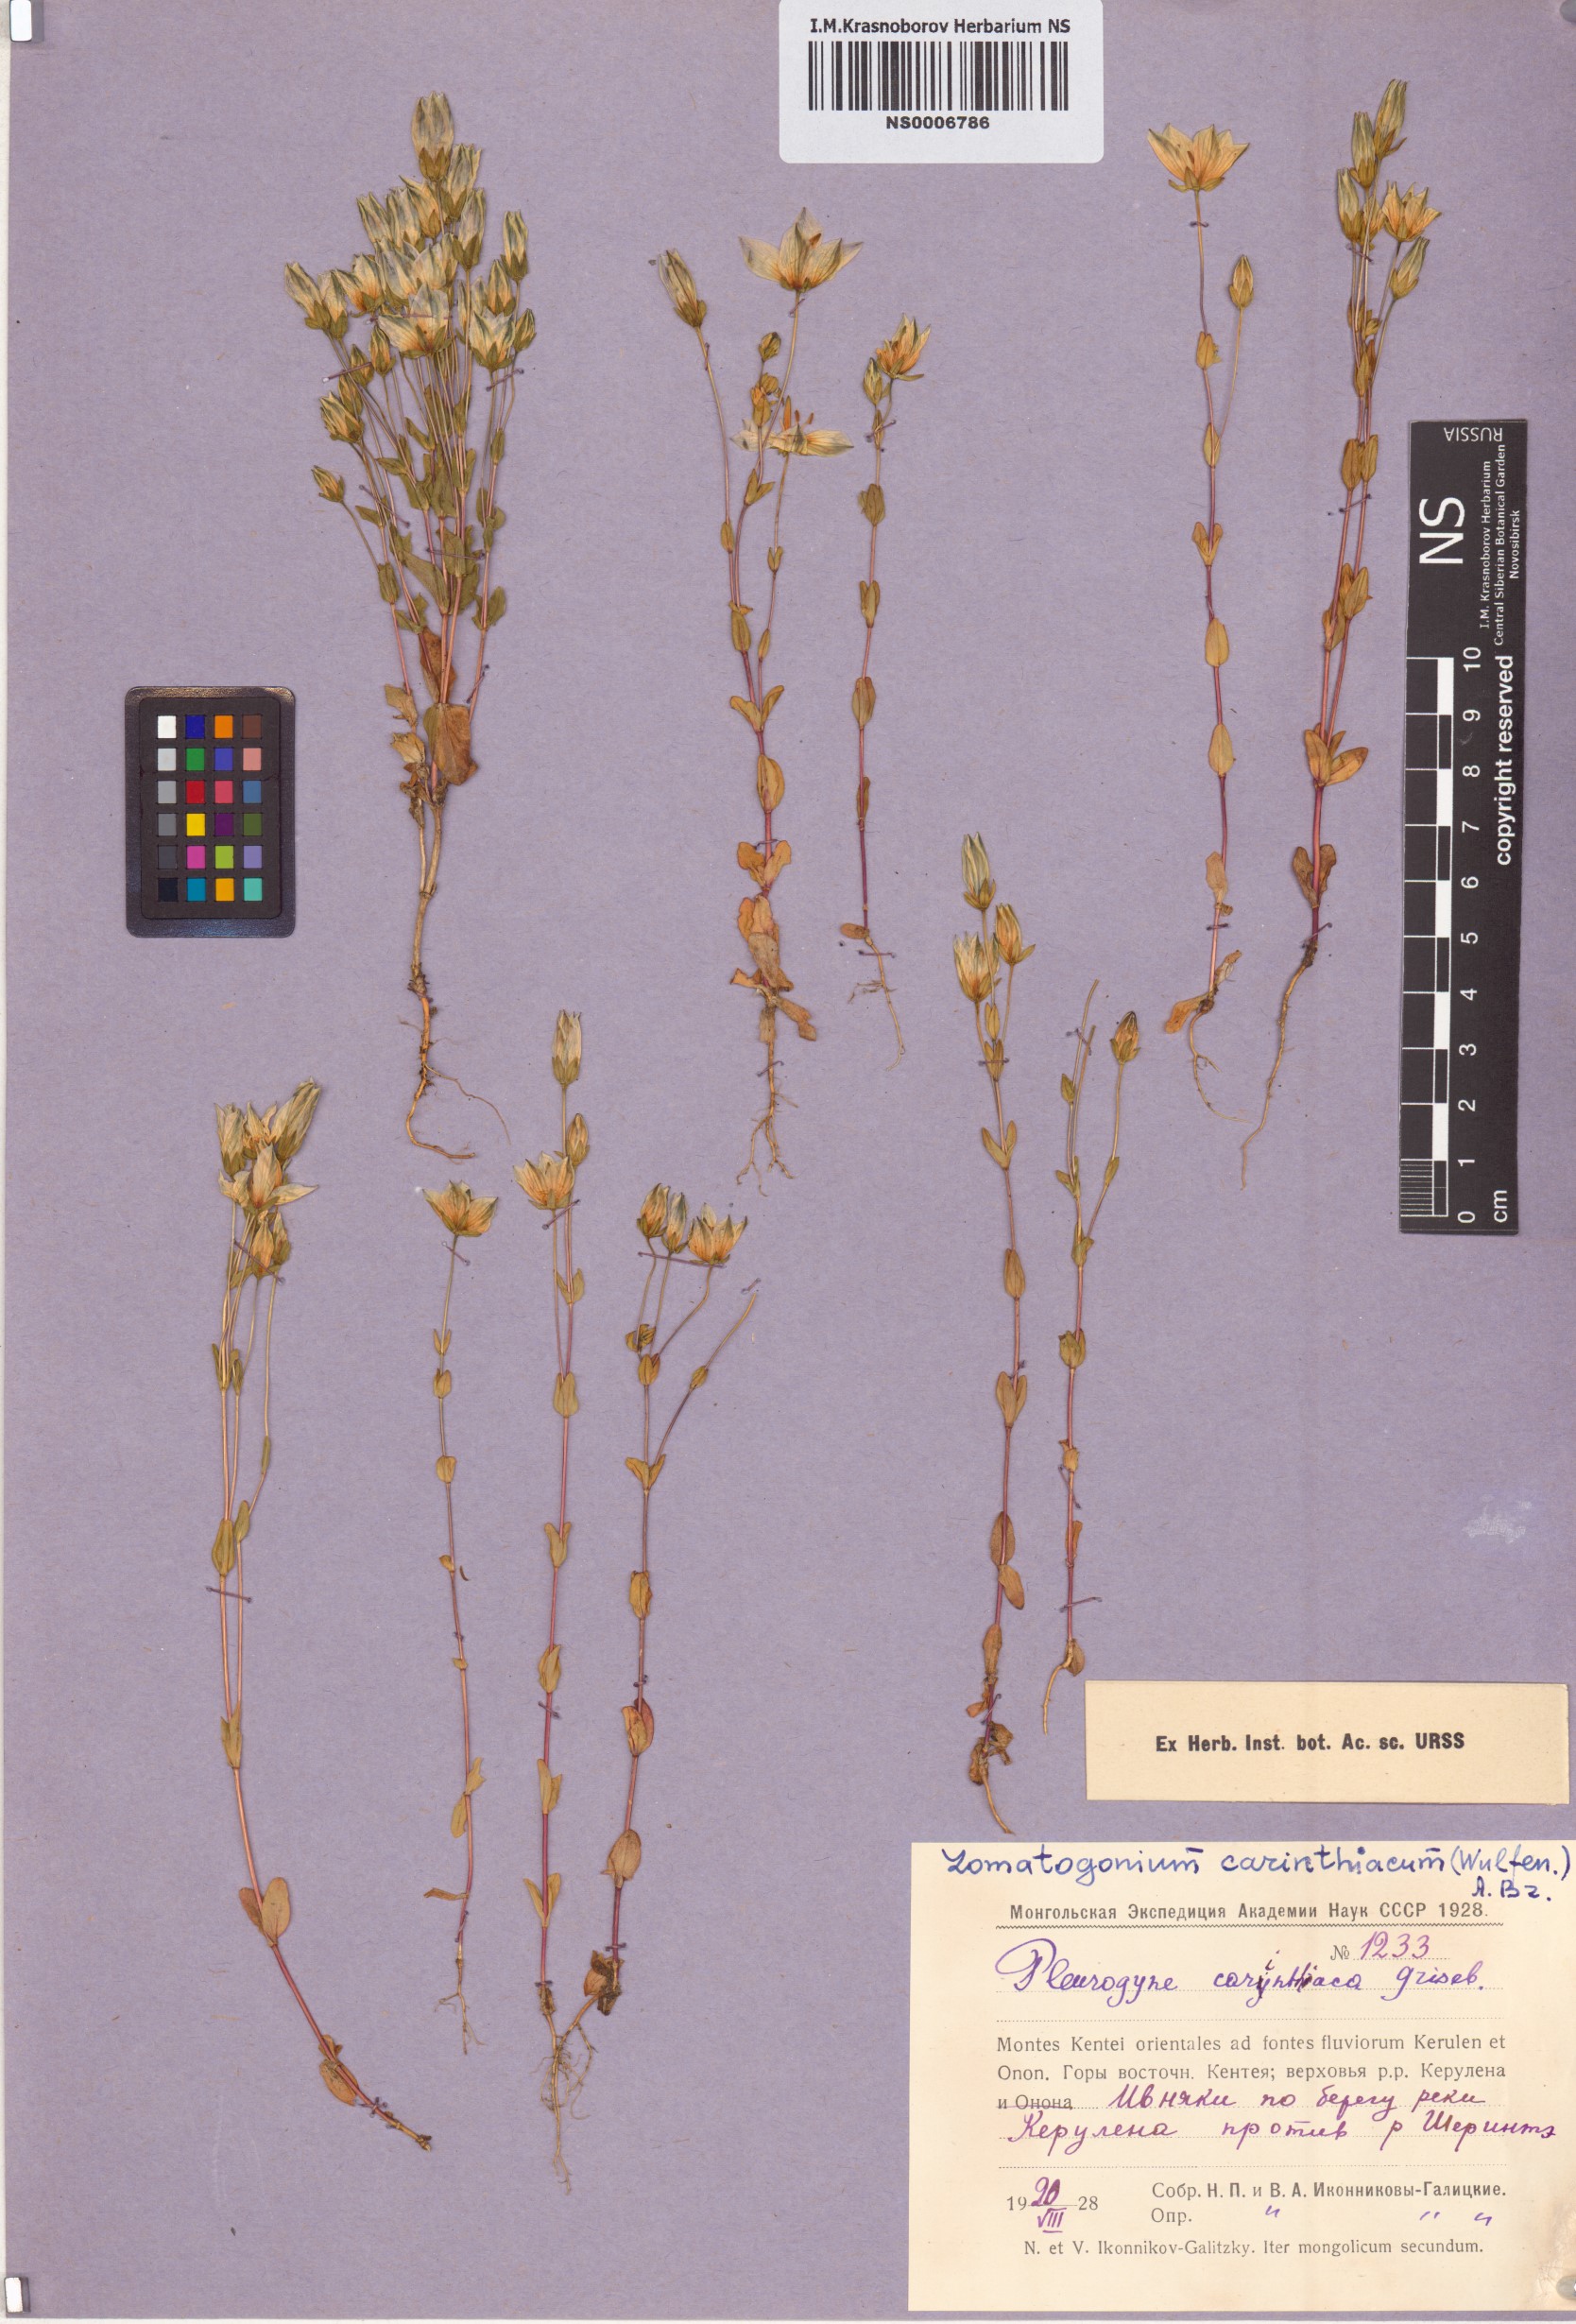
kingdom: Plantae
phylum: Tracheophyta
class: Magnoliopsida
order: Gentianales
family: Gentianaceae
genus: Lomatogonium
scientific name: Lomatogonium carinthiacum
